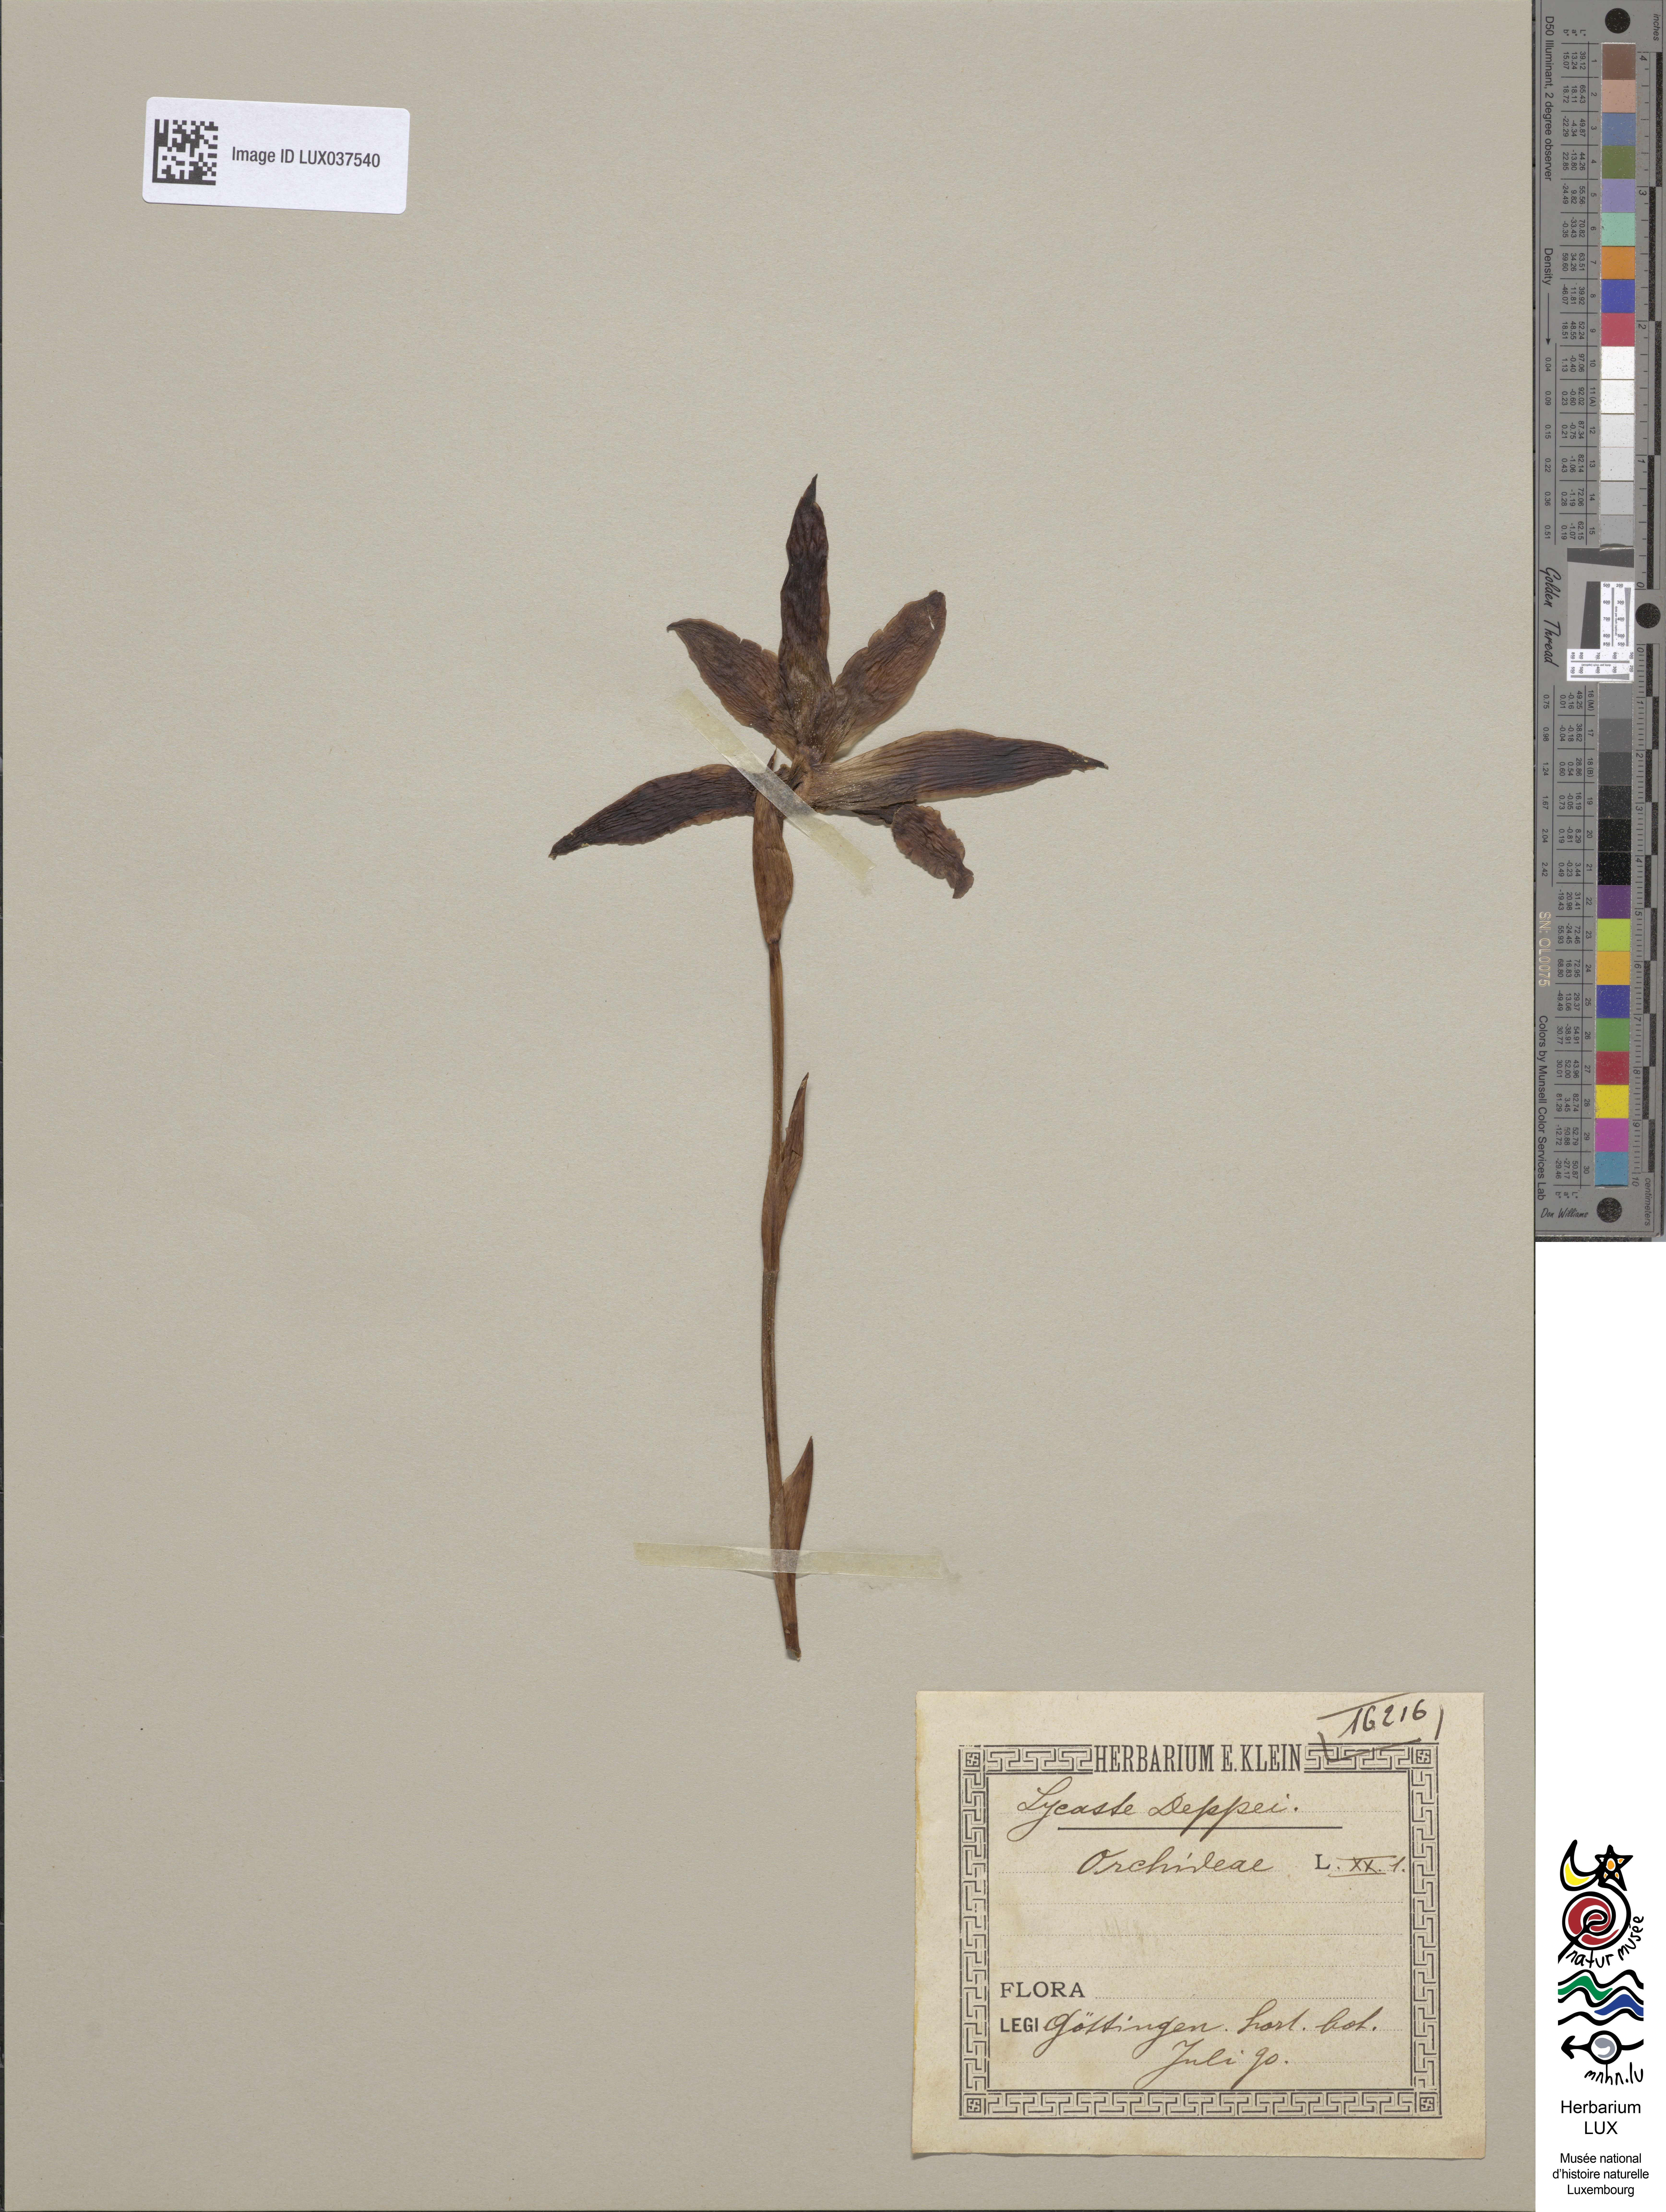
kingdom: Plantae
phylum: Tracheophyta
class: Liliopsida
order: Asparagales
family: Orchidaceae
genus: Lycaste
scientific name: Lycaste deppei
